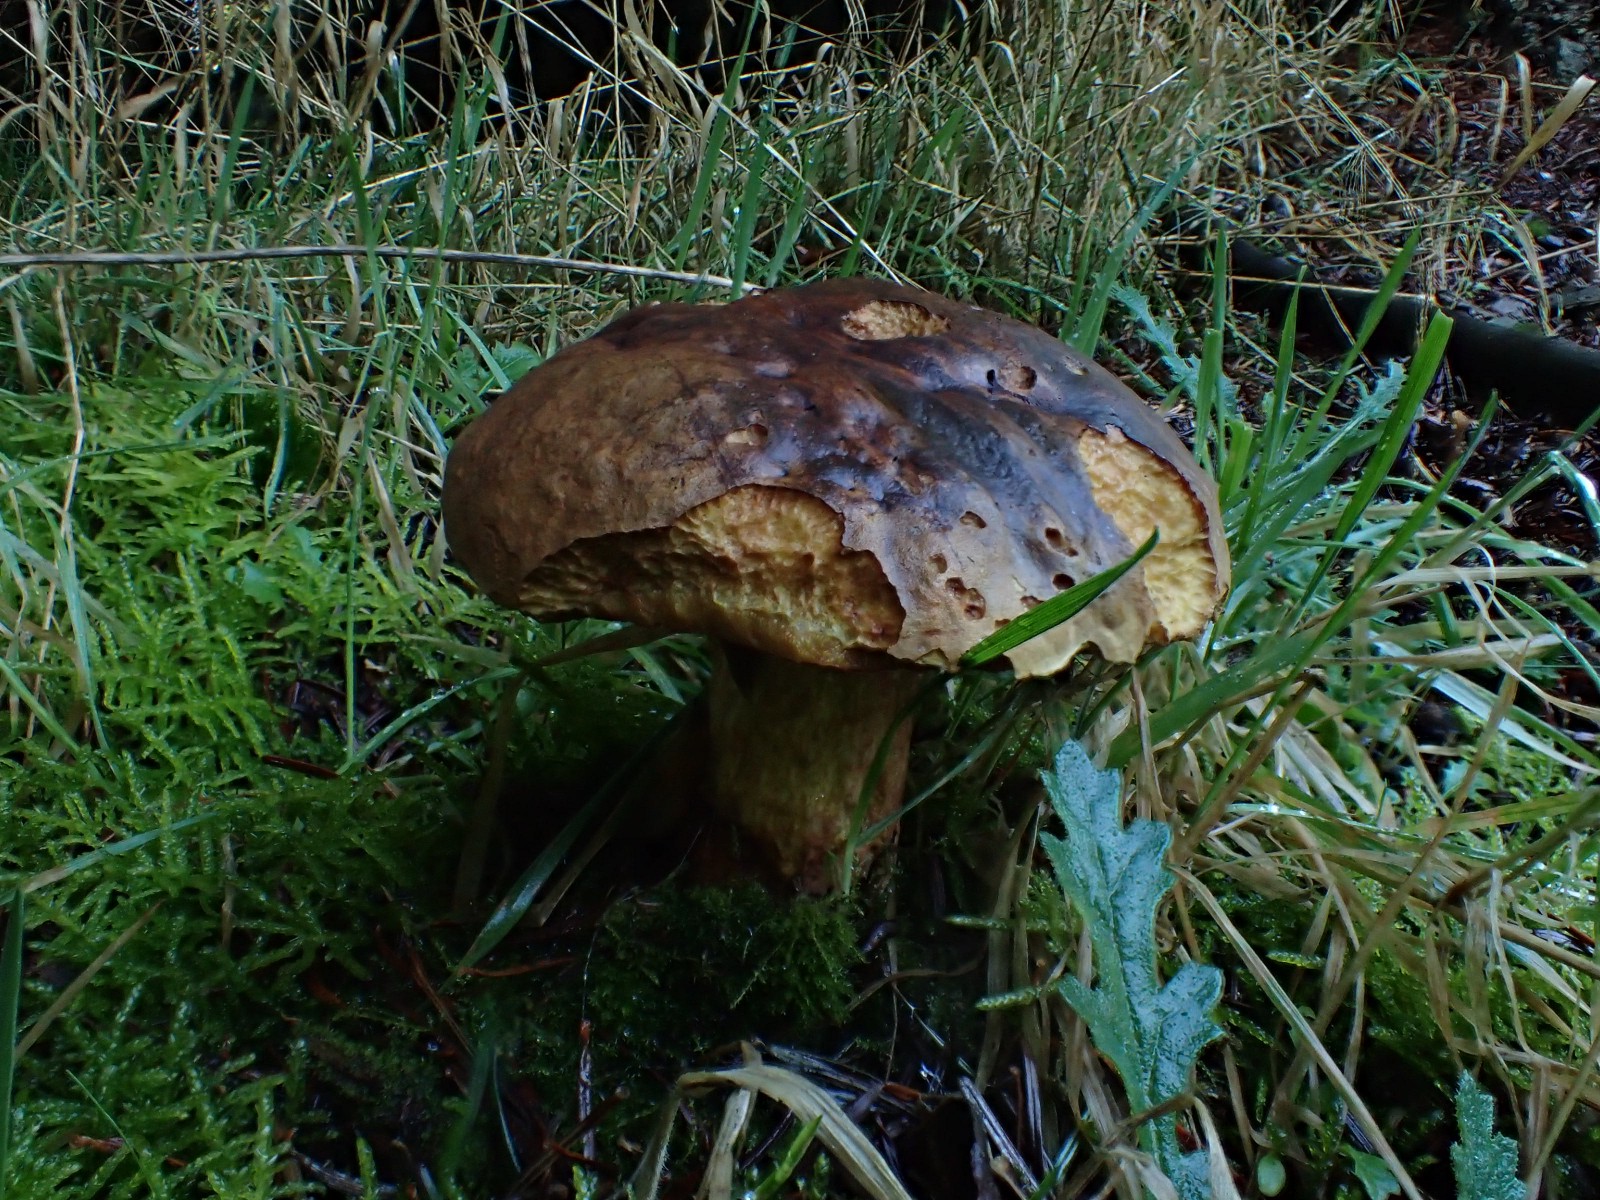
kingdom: Fungi
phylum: Basidiomycota
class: Agaricomycetes
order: Boletales
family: Boletaceae
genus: Neoboletus
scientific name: Neoboletus erythropus
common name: punktstokket indigorørhat
